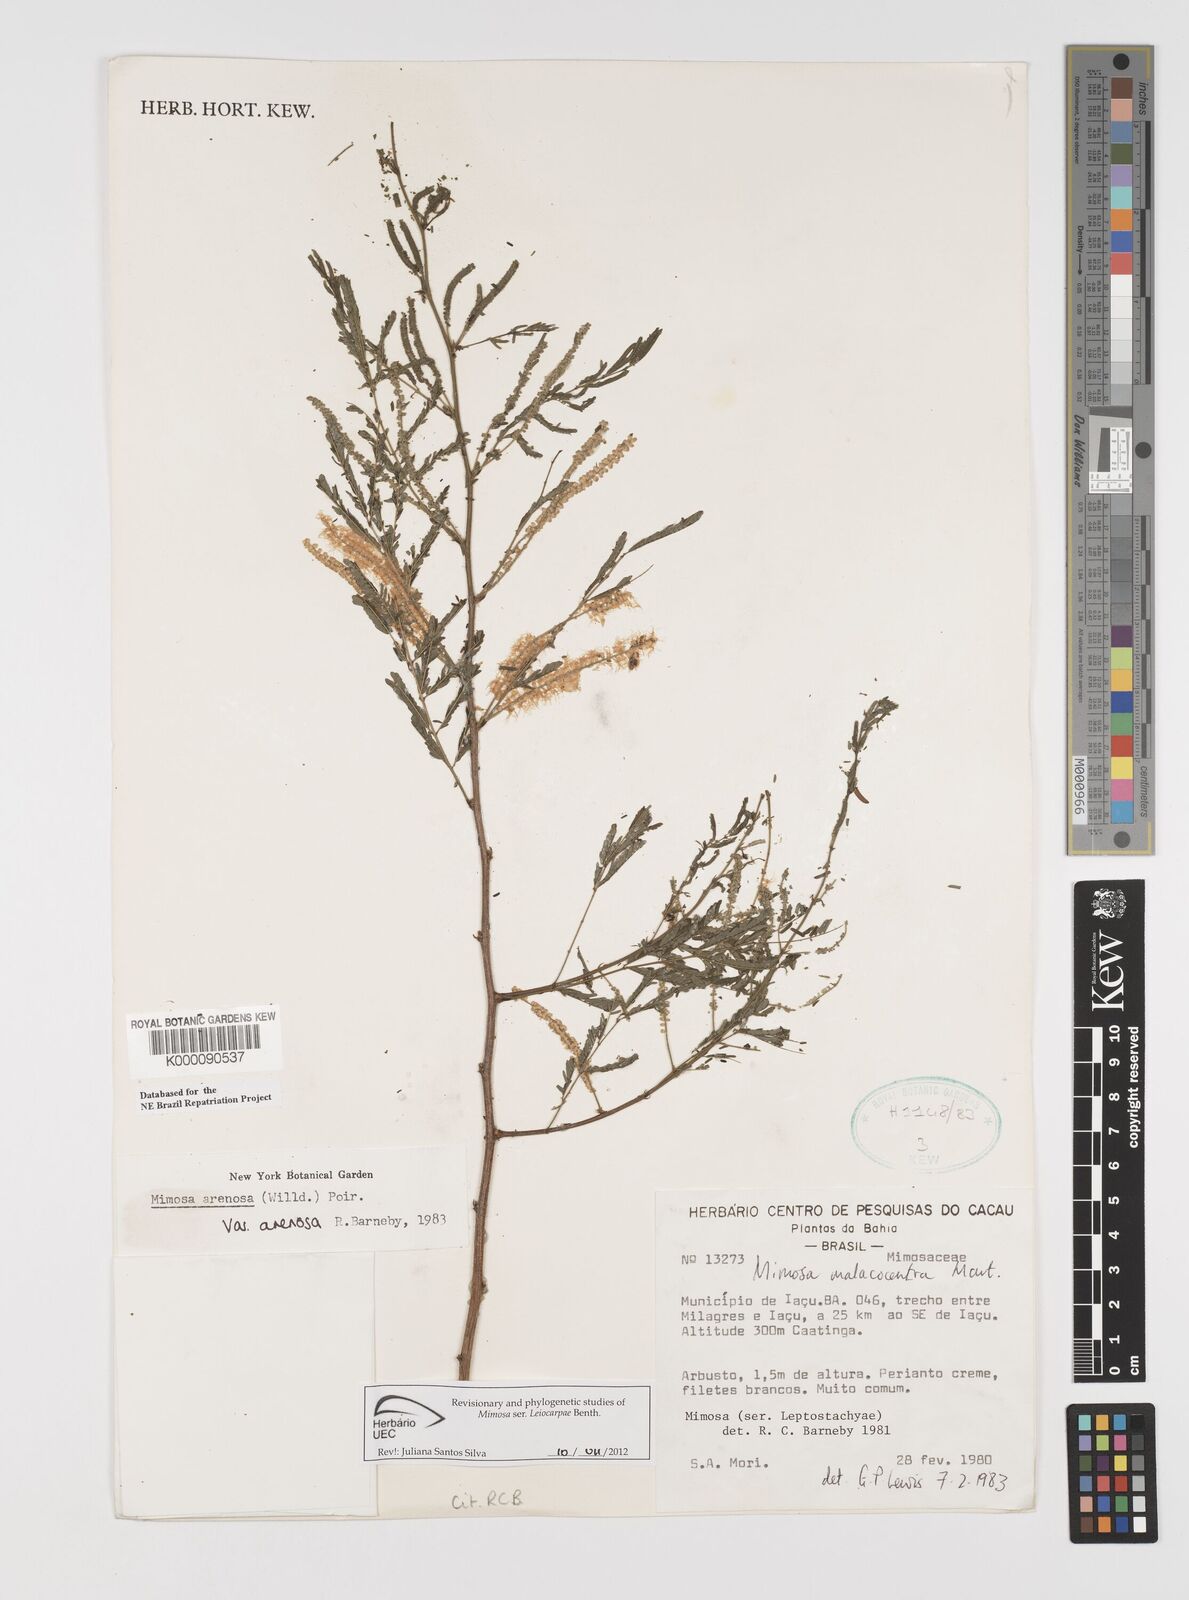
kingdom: Plantae
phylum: Tracheophyta
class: Magnoliopsida
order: Fabales
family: Fabaceae
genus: Mimosa
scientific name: Mimosa arenosa
